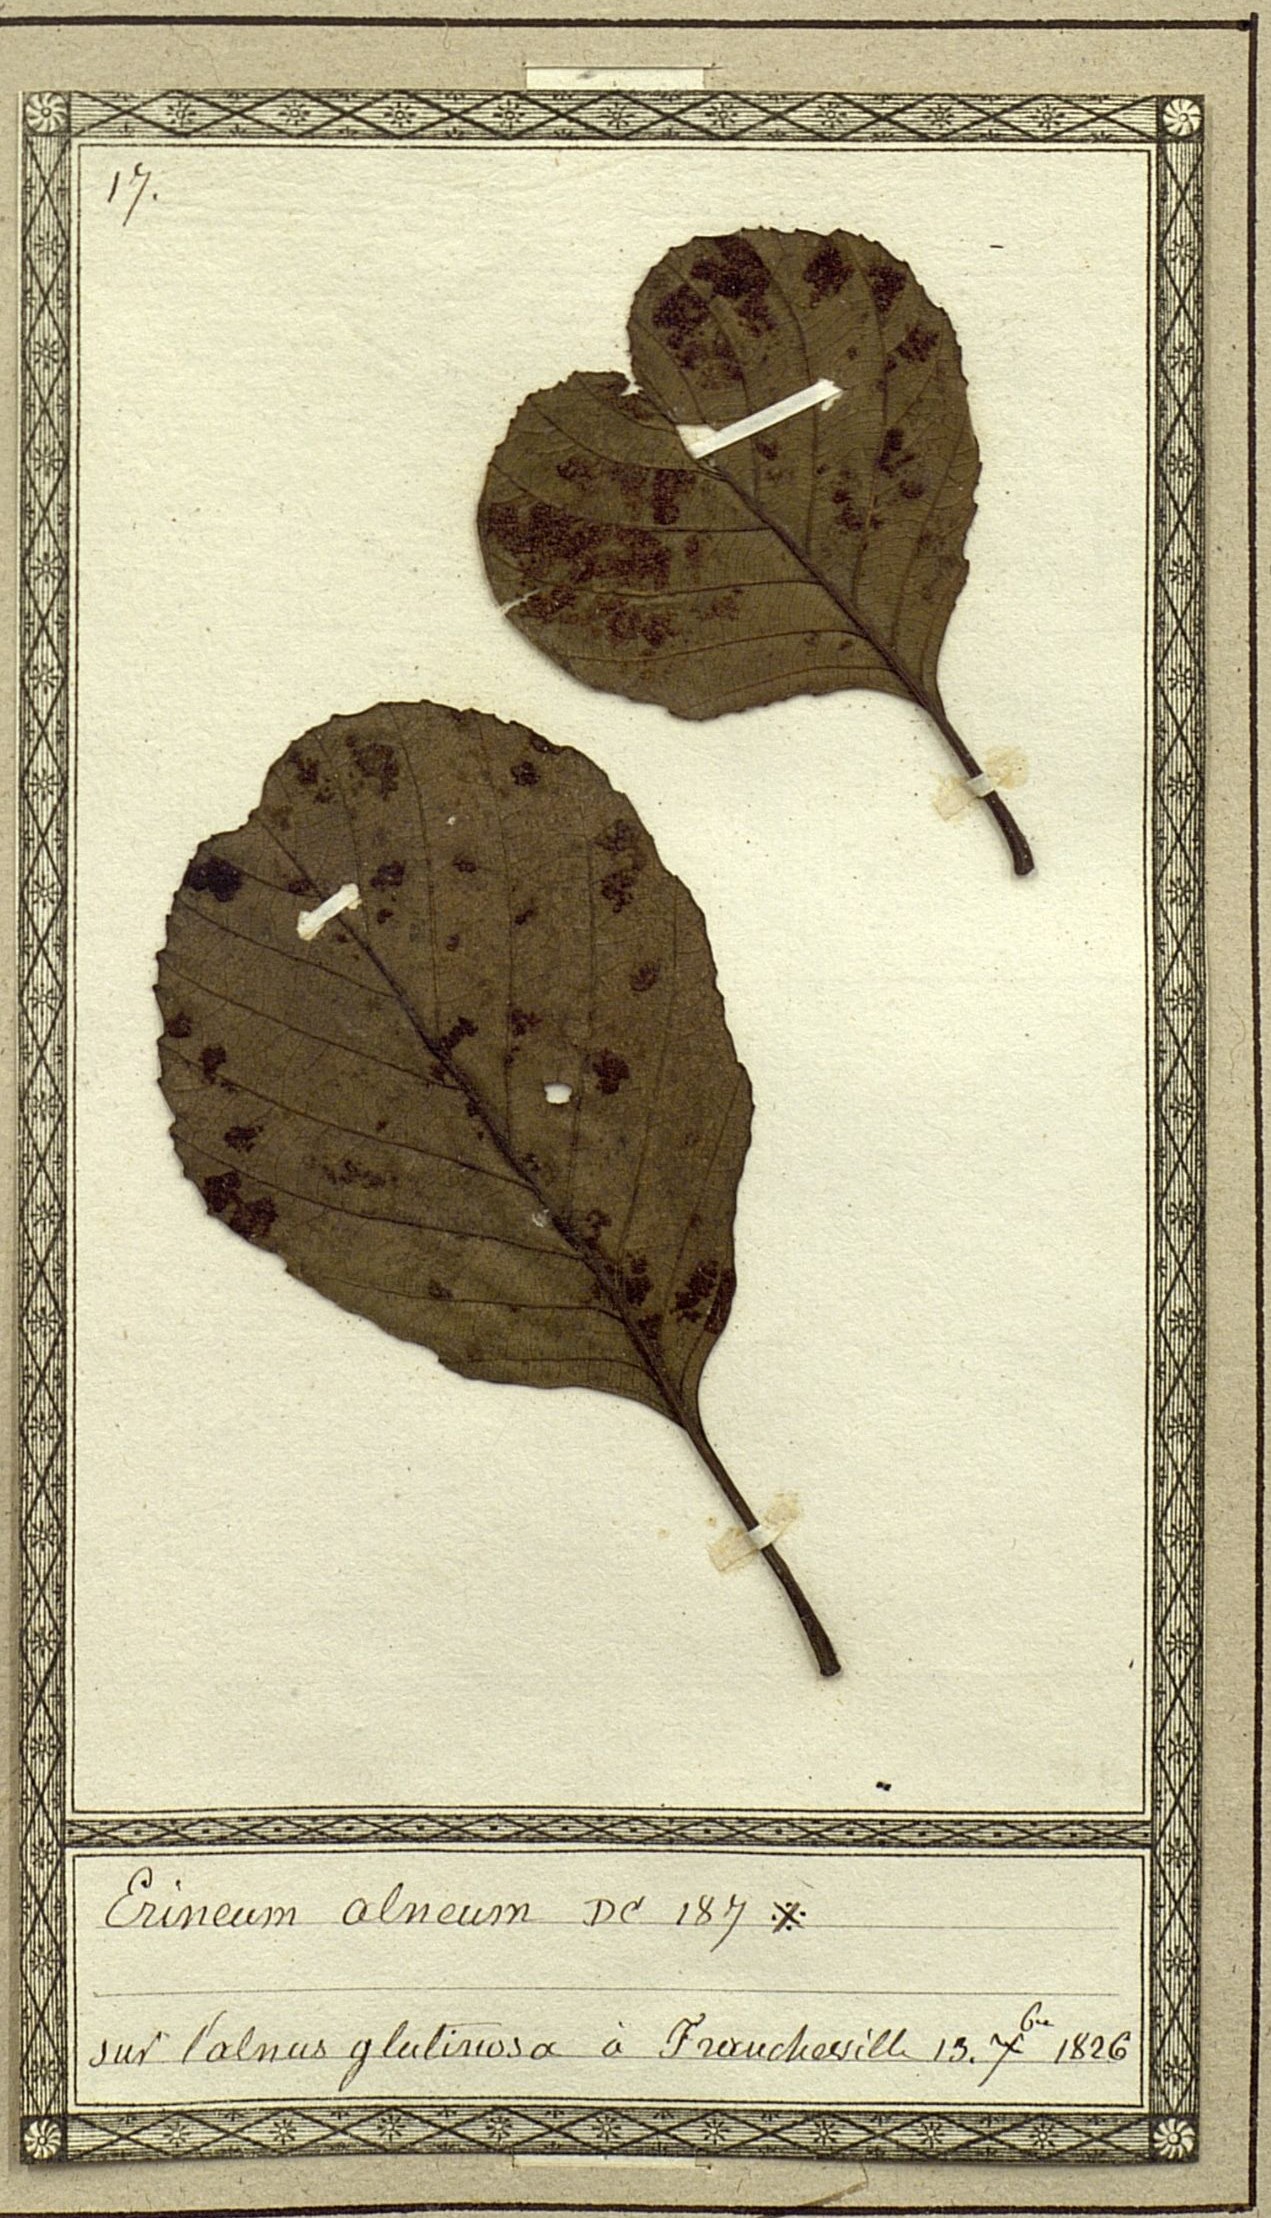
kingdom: Fungi
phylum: Basidiomycota
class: Pucciniomycetes
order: Pucciniales
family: Cronartiaceae
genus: Erineum
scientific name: Erineum
